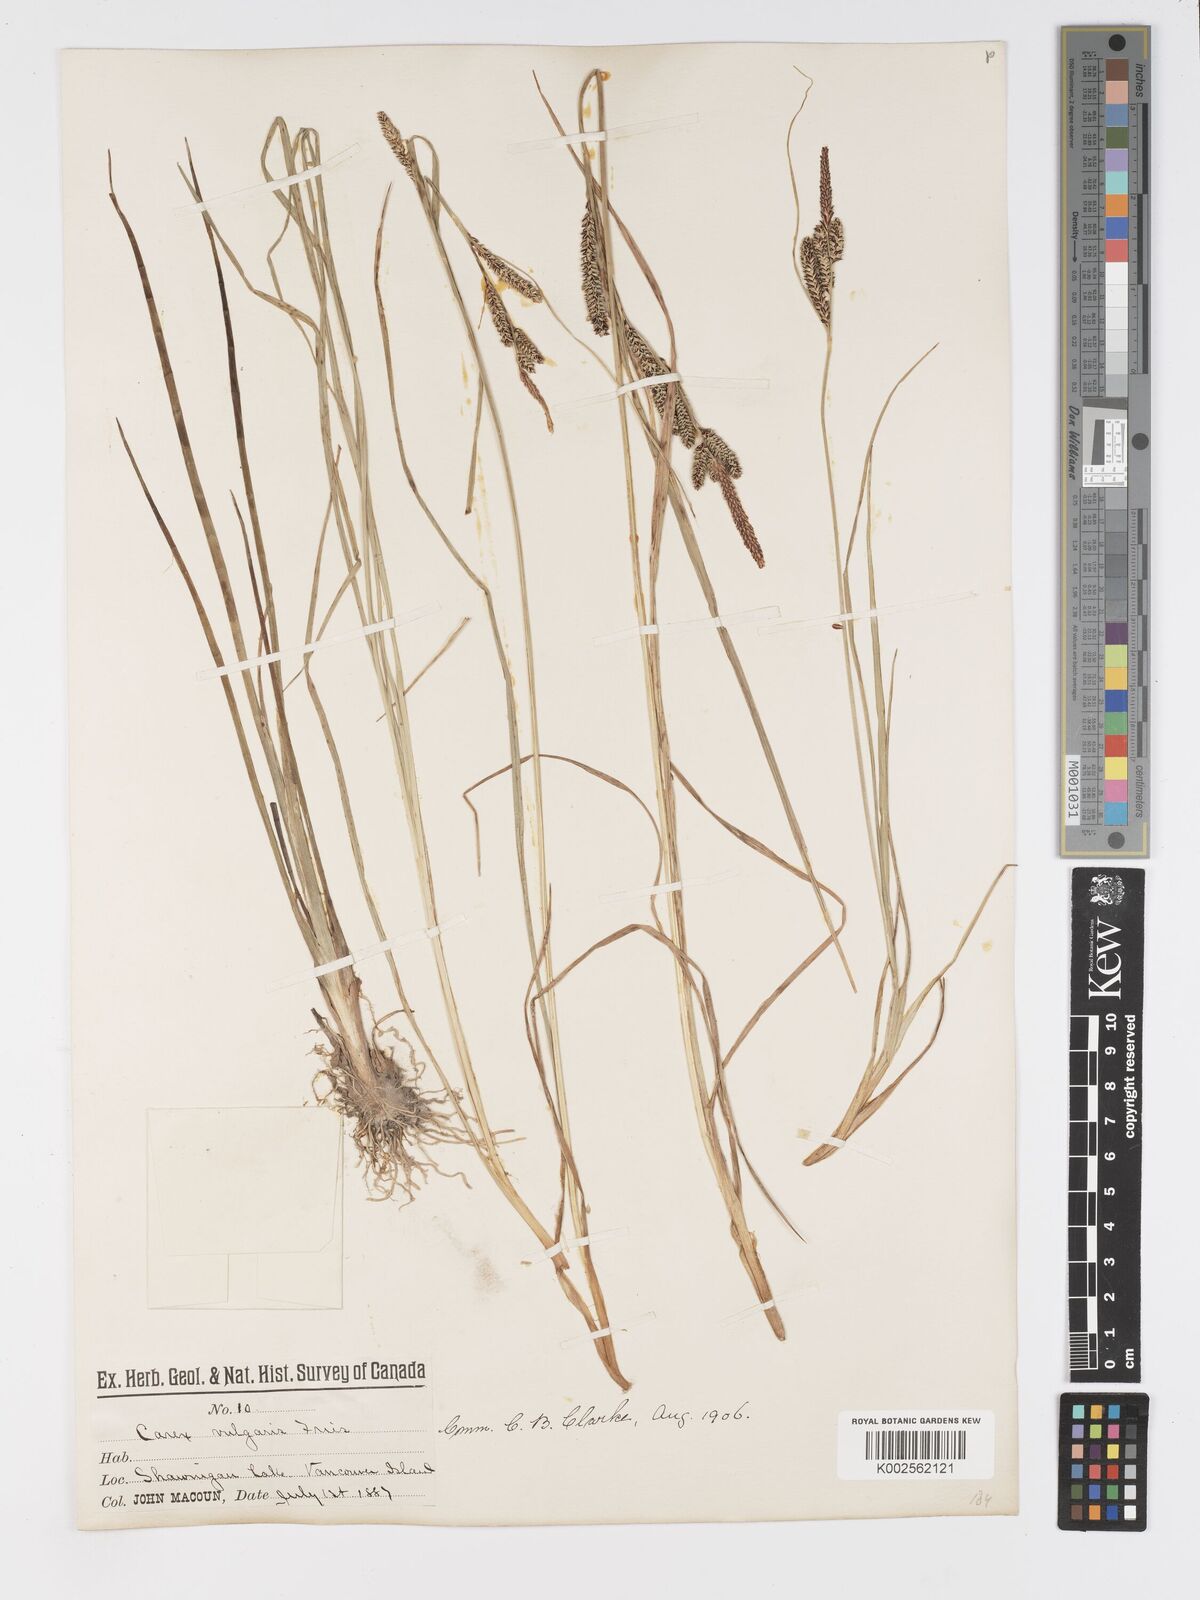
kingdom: Plantae
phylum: Tracheophyta
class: Liliopsida
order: Poales
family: Cyperaceae
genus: Carex
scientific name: Carex kelloggii
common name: Kellogg's sedge
